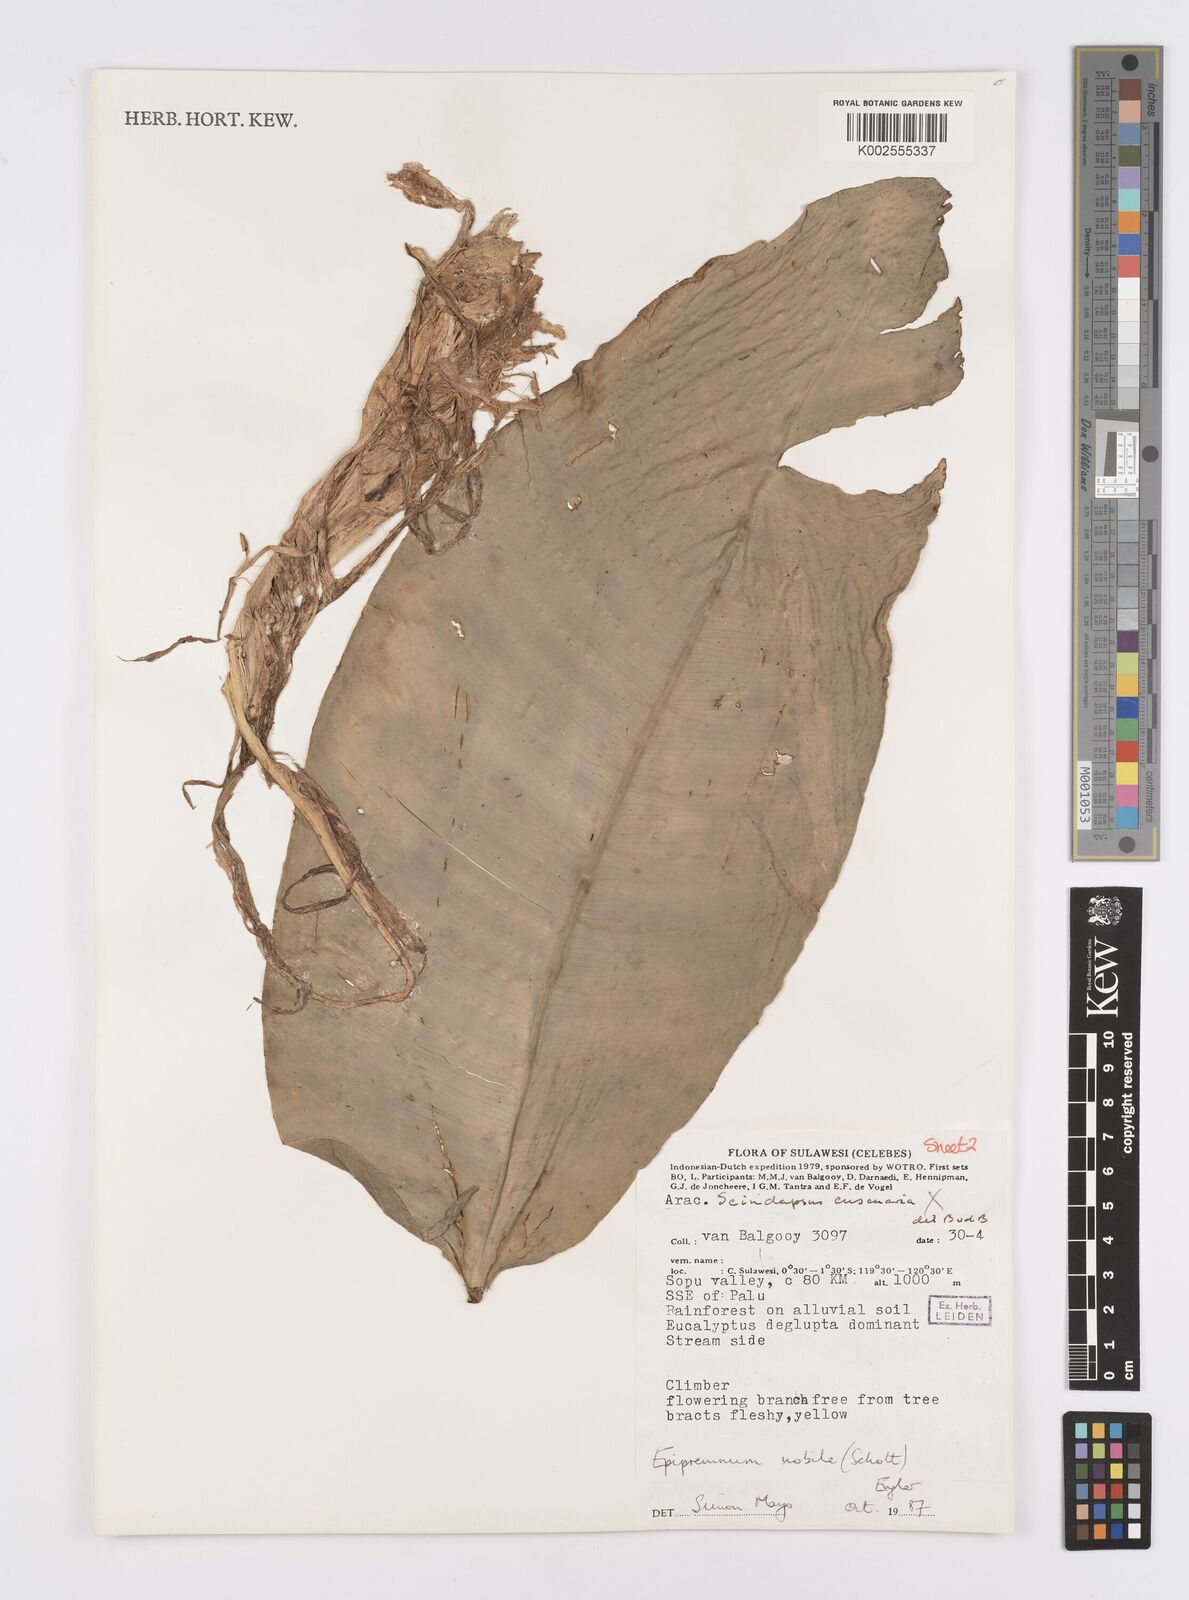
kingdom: Plantae
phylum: Tracheophyta
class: Liliopsida
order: Alismatales
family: Araceae
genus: Epipremnum
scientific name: Epipremnum nobile
